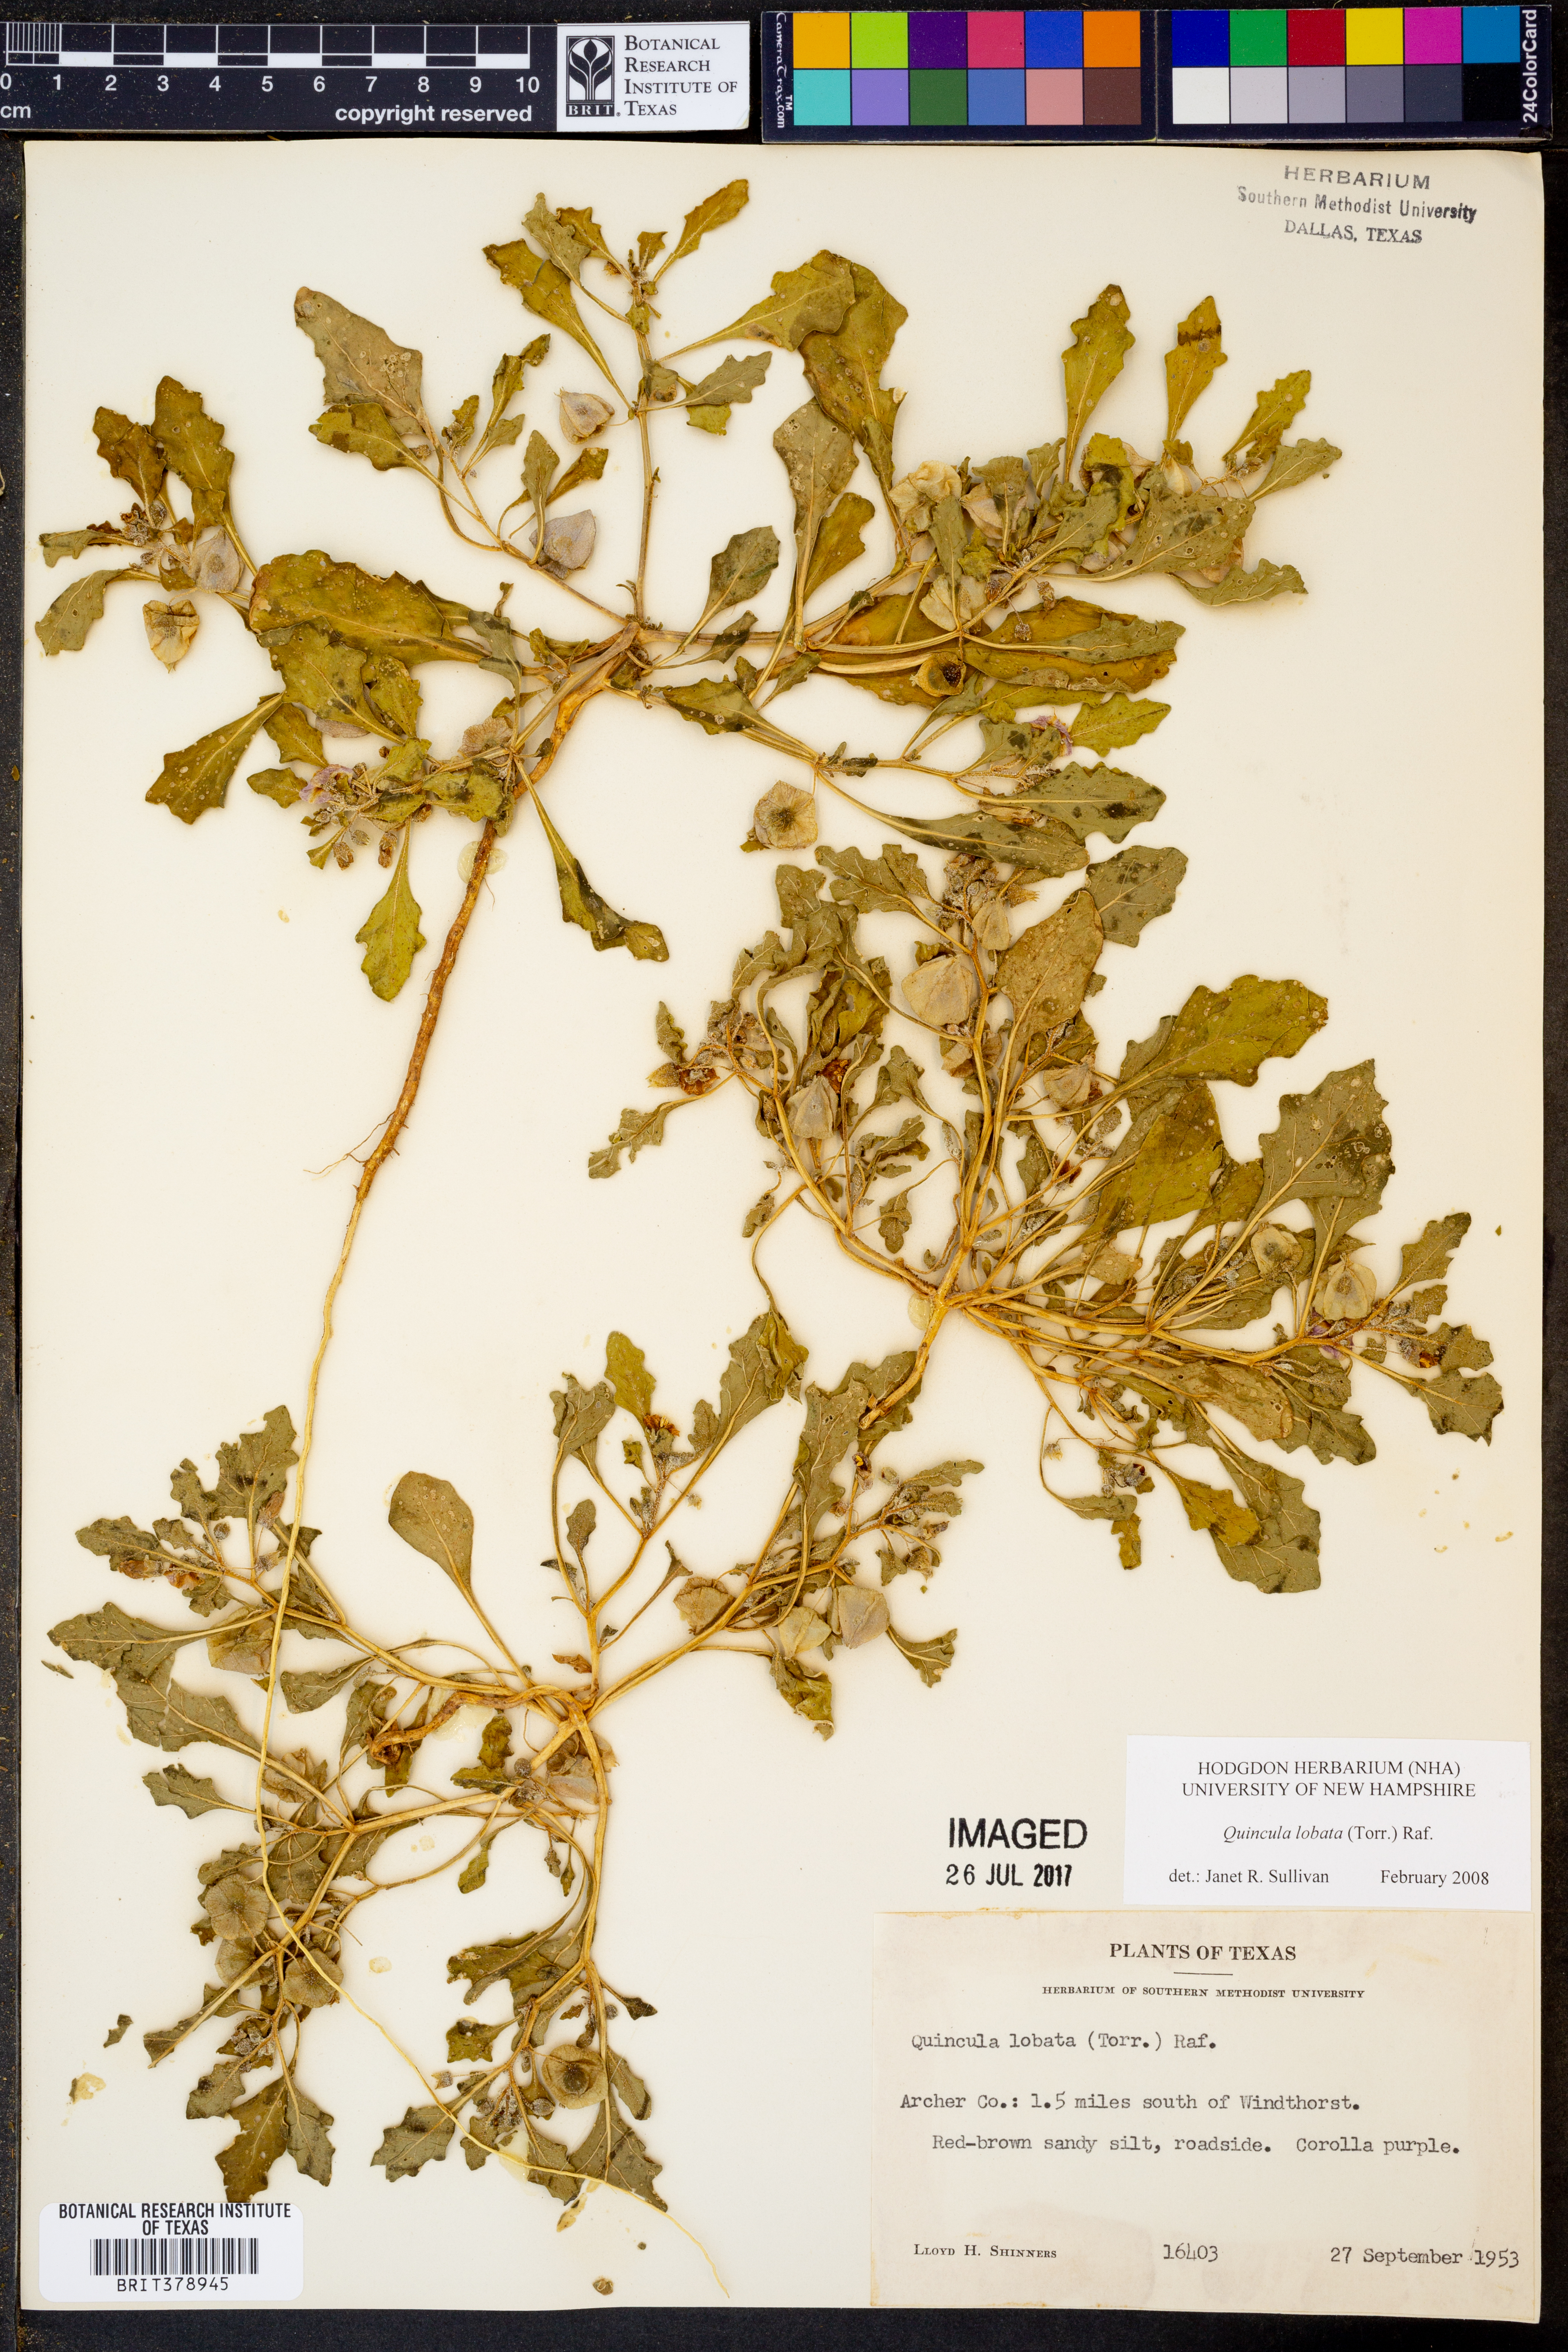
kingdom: Plantae
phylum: Tracheophyta
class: Magnoliopsida
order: Solanales
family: Solanaceae
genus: Quincula
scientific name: Quincula lobata
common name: Purple-ground-cherry
